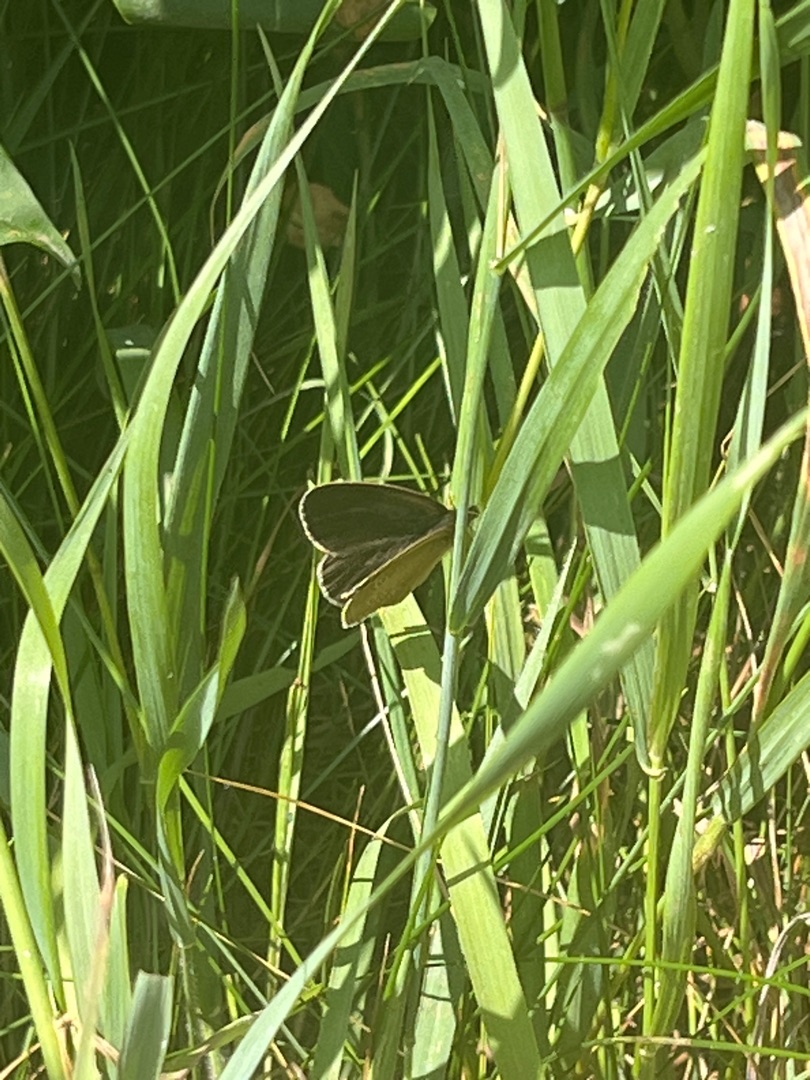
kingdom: Animalia
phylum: Arthropoda
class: Insecta
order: Lepidoptera
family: Nymphalidae
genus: Aphantopus
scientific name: Aphantopus hyperantus
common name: Engrandøje
